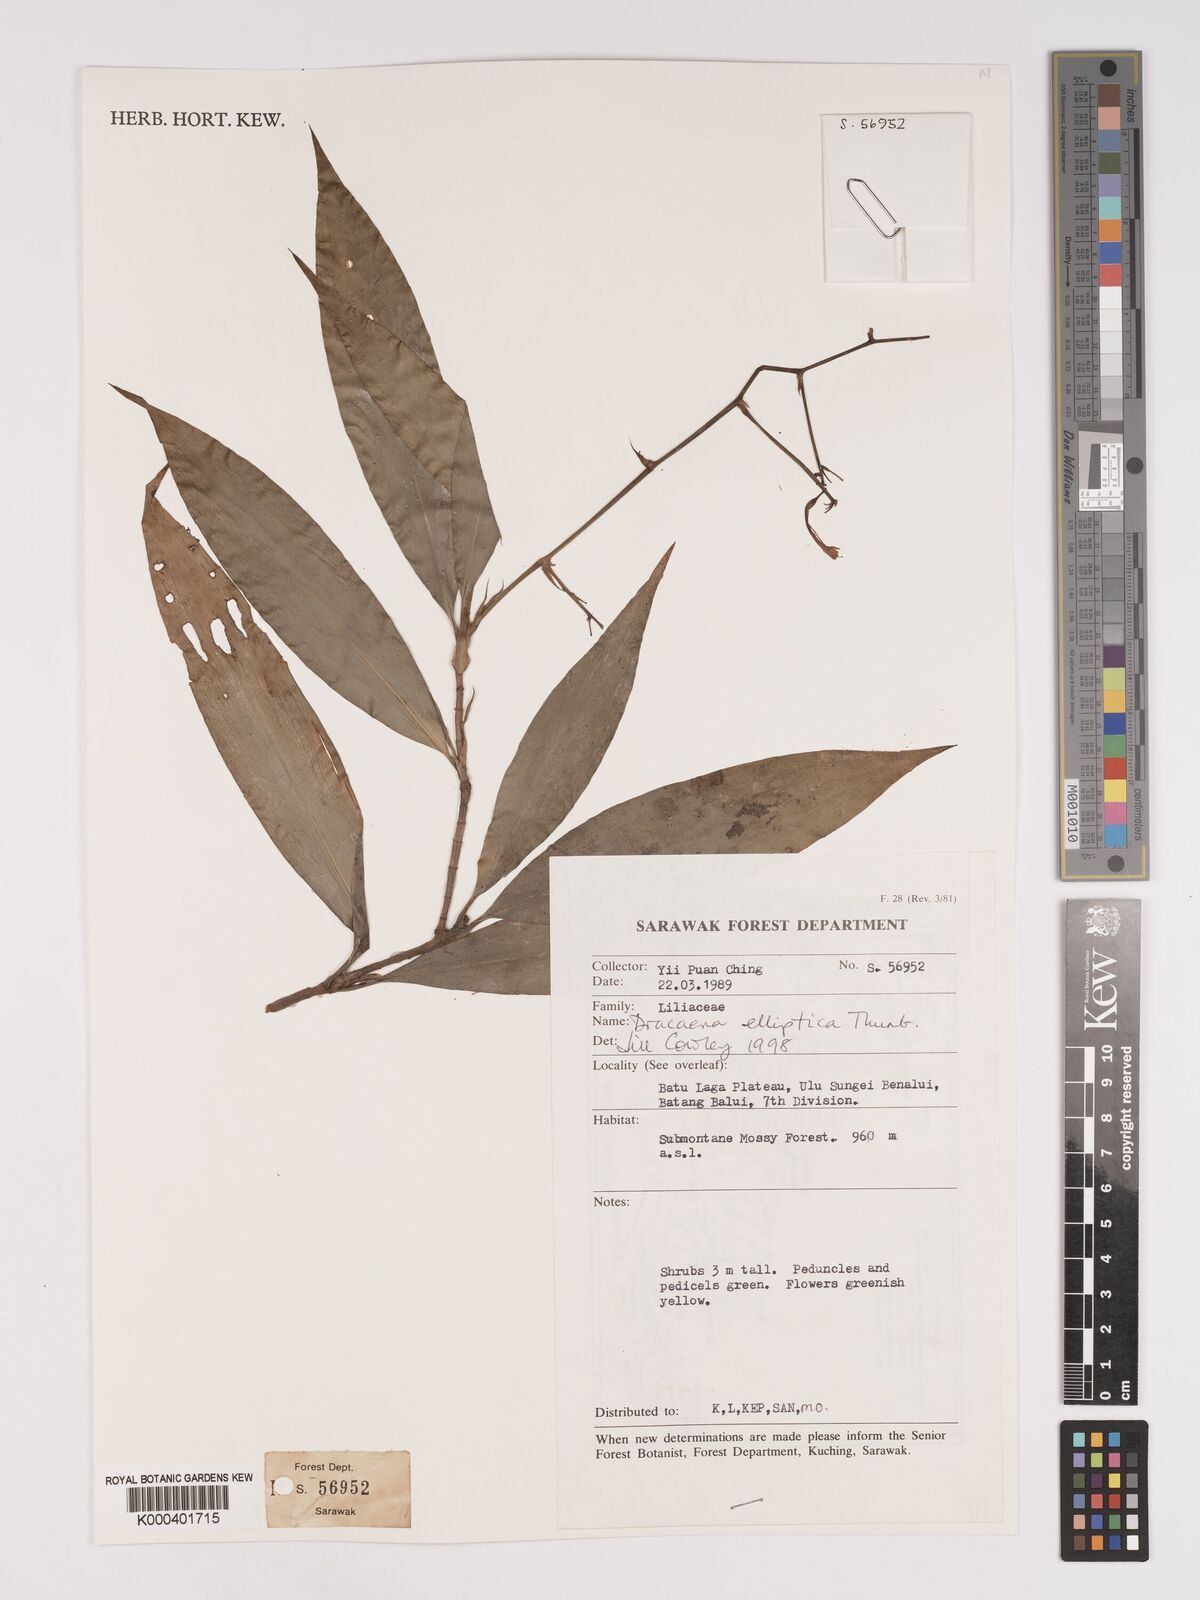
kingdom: Plantae
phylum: Tracheophyta
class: Liliopsida
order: Asparagales
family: Asparagaceae
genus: Dracaena
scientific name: Dracaena elliptica
